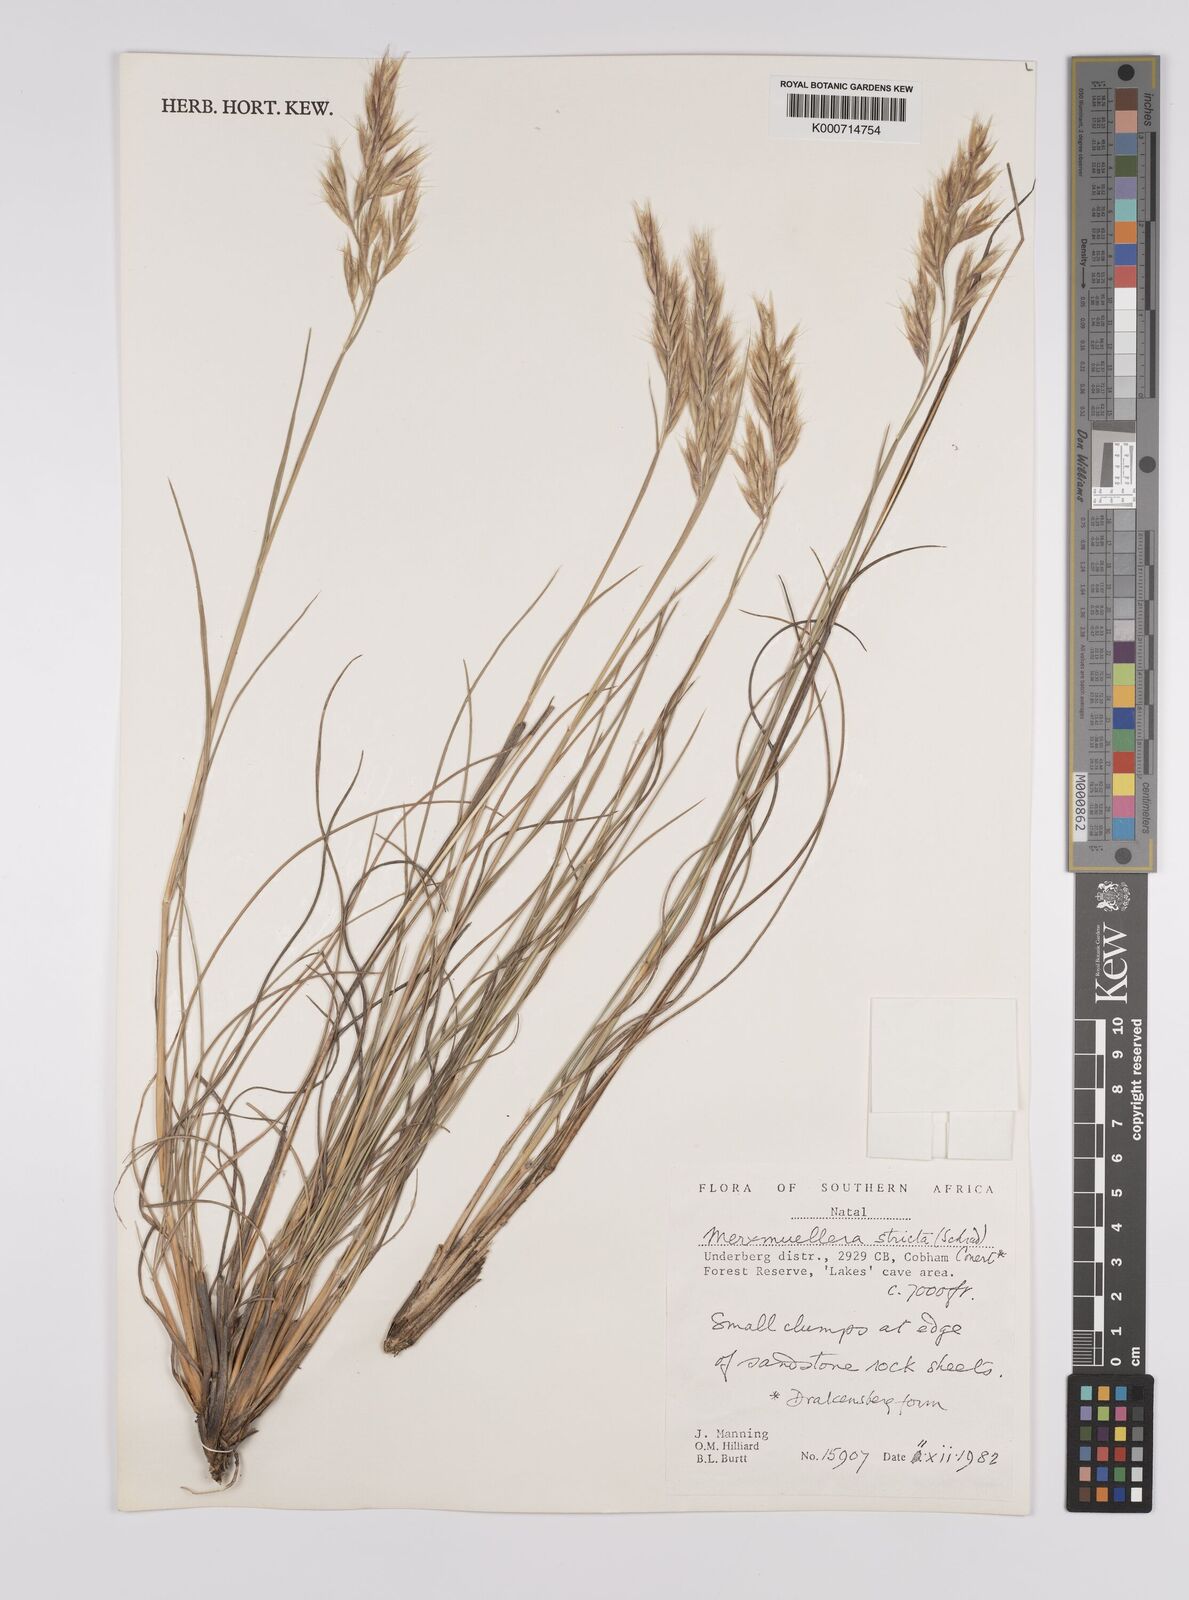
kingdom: Plantae
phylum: Tracheophyta
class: Liliopsida
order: Poales
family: Poaceae
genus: Rytidosperma
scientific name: Rytidosperma
